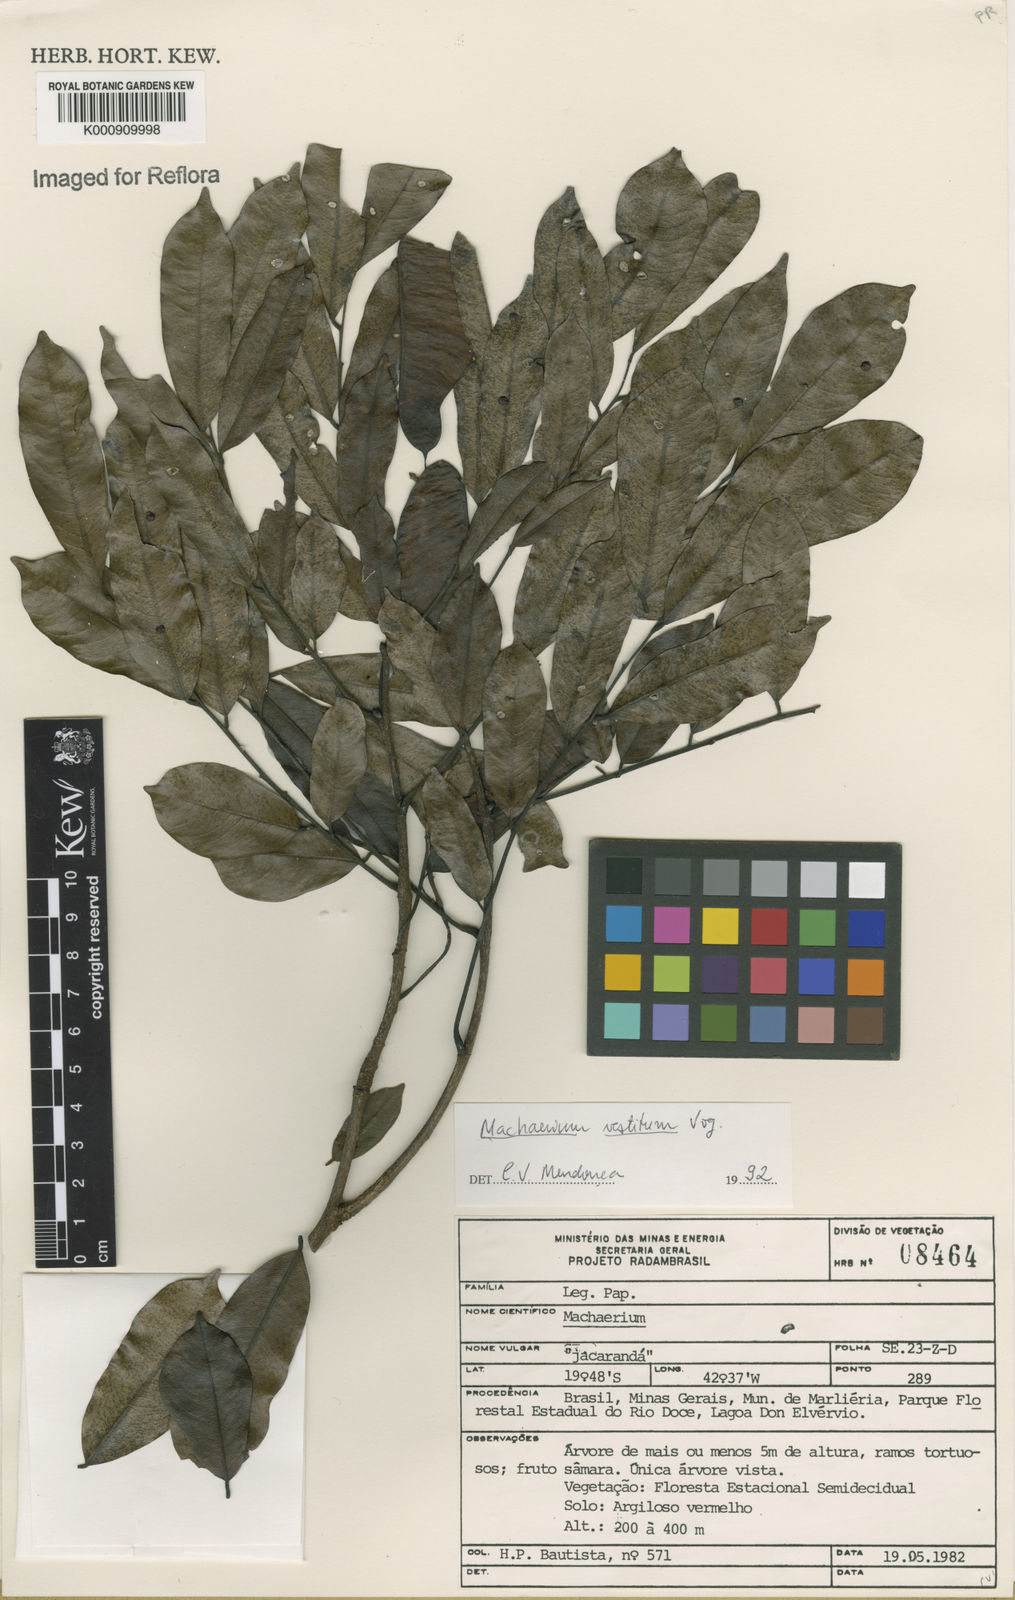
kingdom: Plantae
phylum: Tracheophyta
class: Magnoliopsida
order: Fabales
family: Fabaceae
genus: Machaerium
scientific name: Machaerium brasiliense
